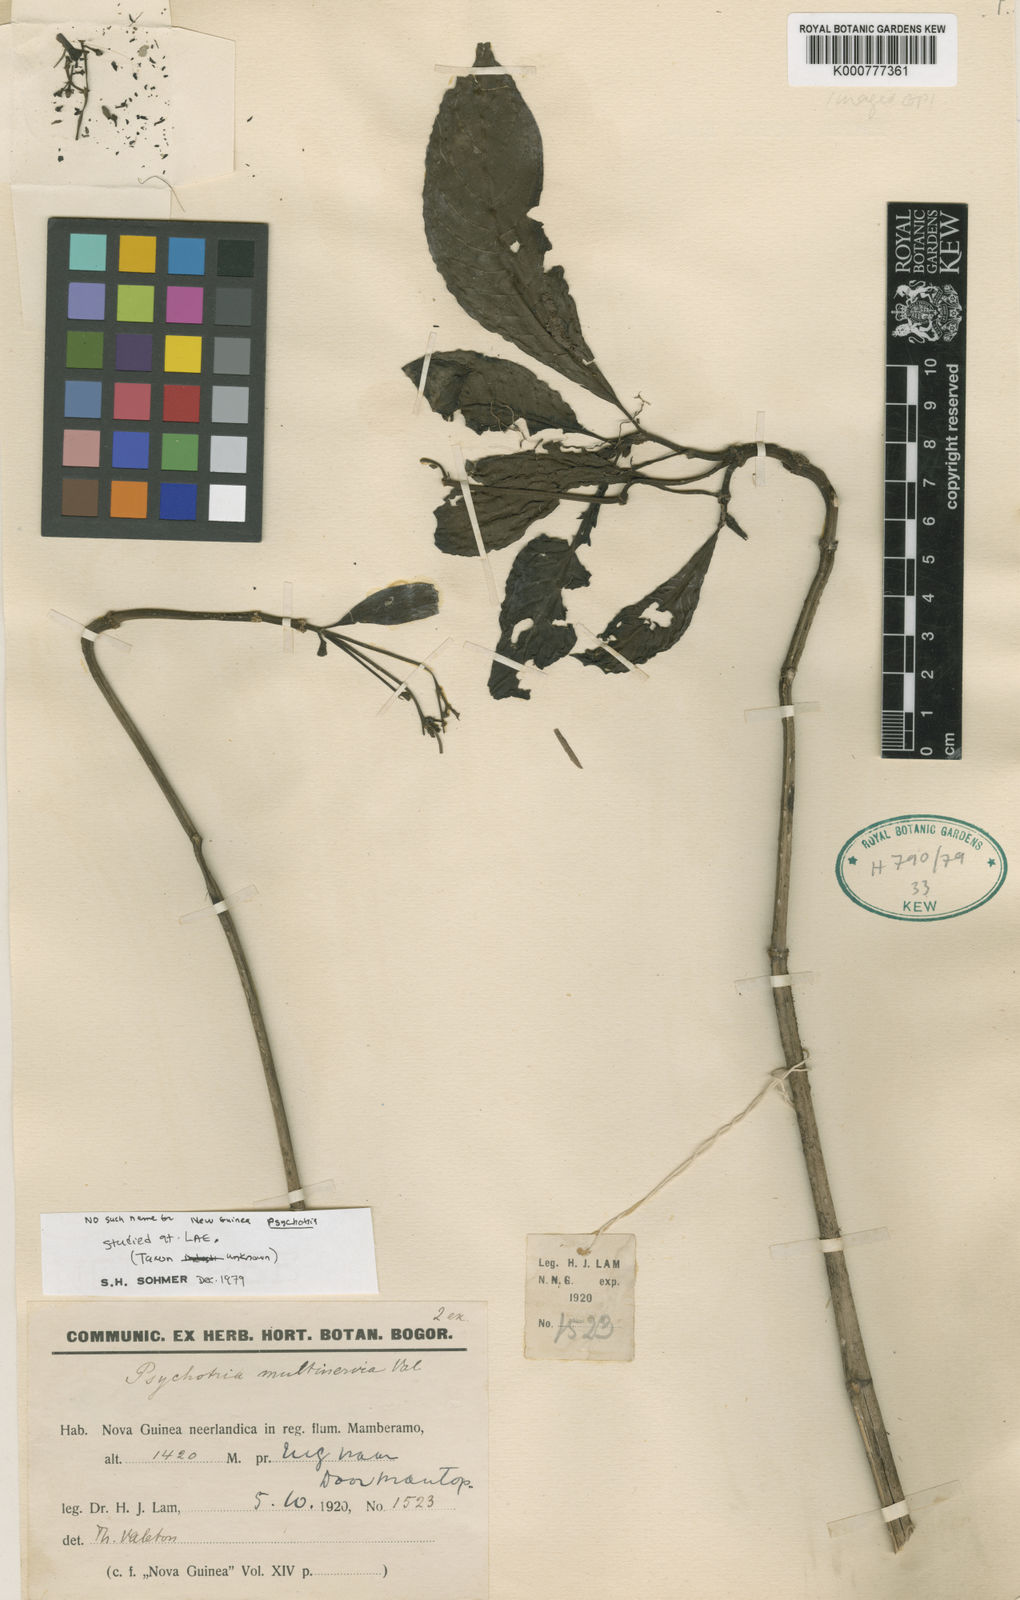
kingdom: Plantae
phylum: Tracheophyta
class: Magnoliopsida
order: Gentianales
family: Rubiaceae
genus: Tarenna
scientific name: Tarenna
